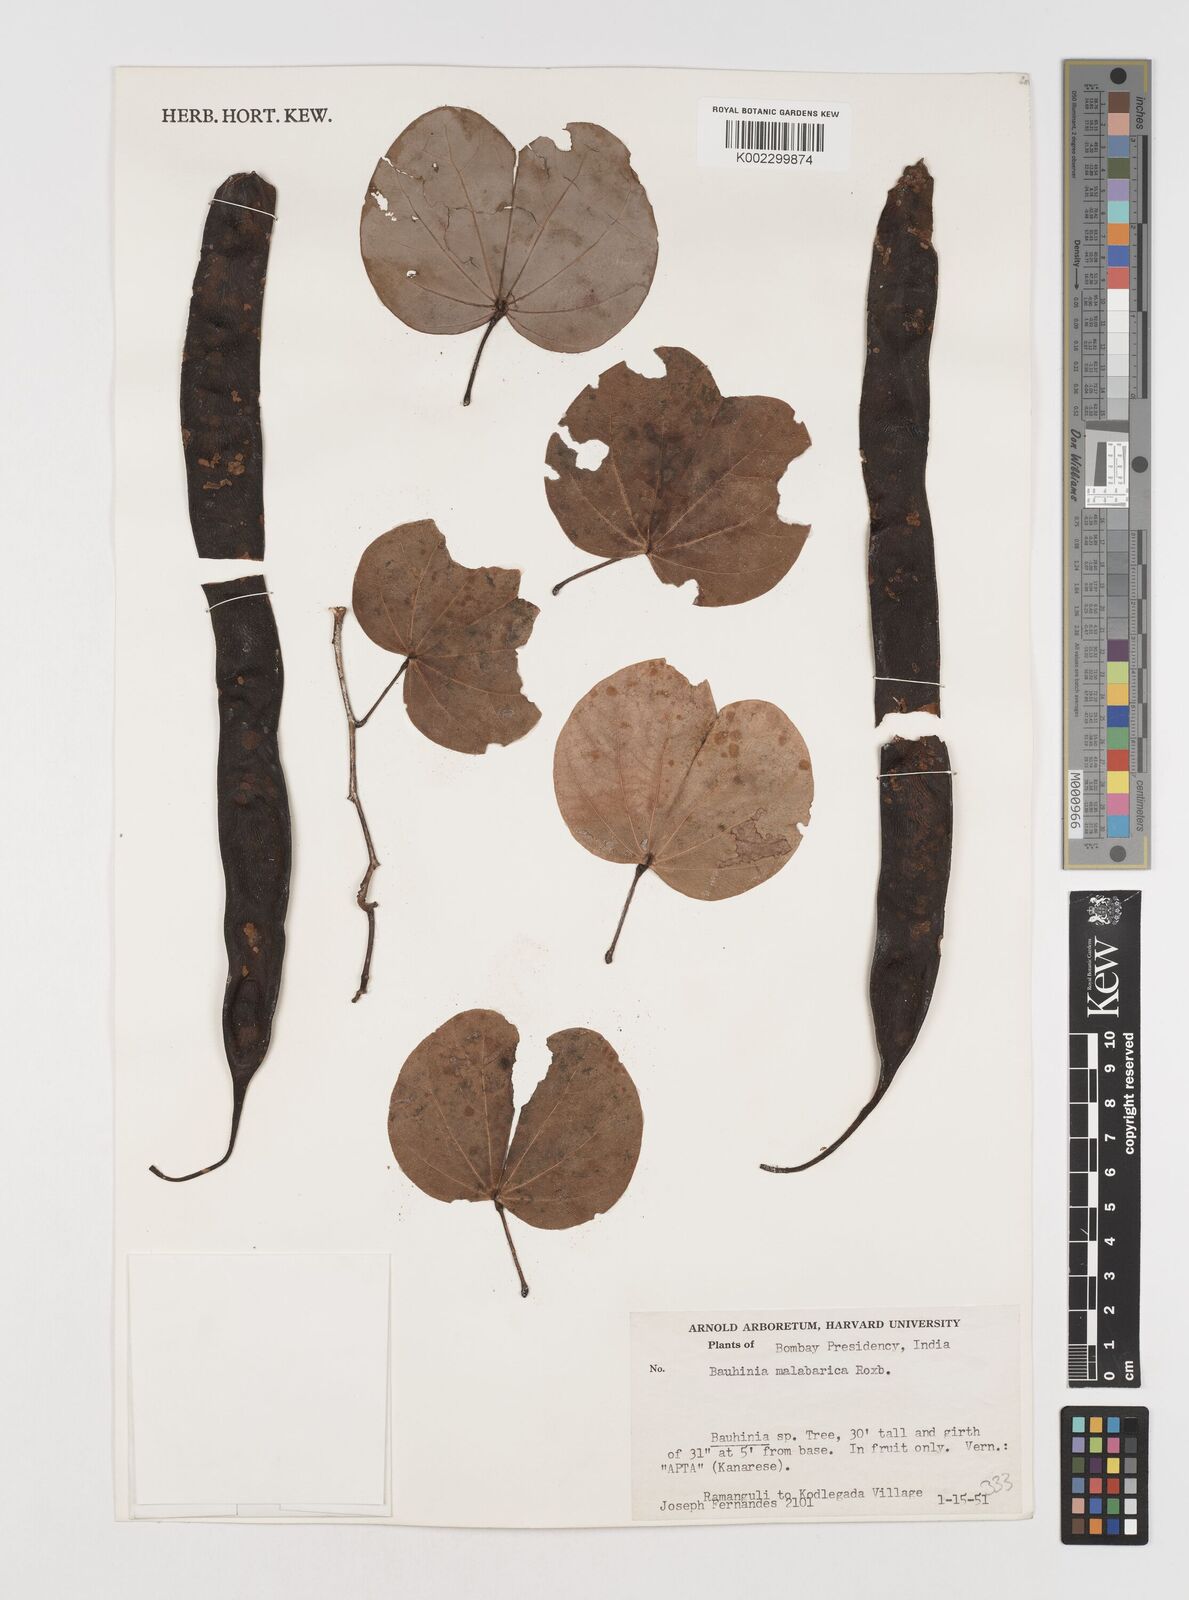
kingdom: Plantae
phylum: Tracheophyta
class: Magnoliopsida
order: Fabales
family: Fabaceae
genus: Piliostigma
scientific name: Piliostigma malabaricum
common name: Malabar bauhinia
